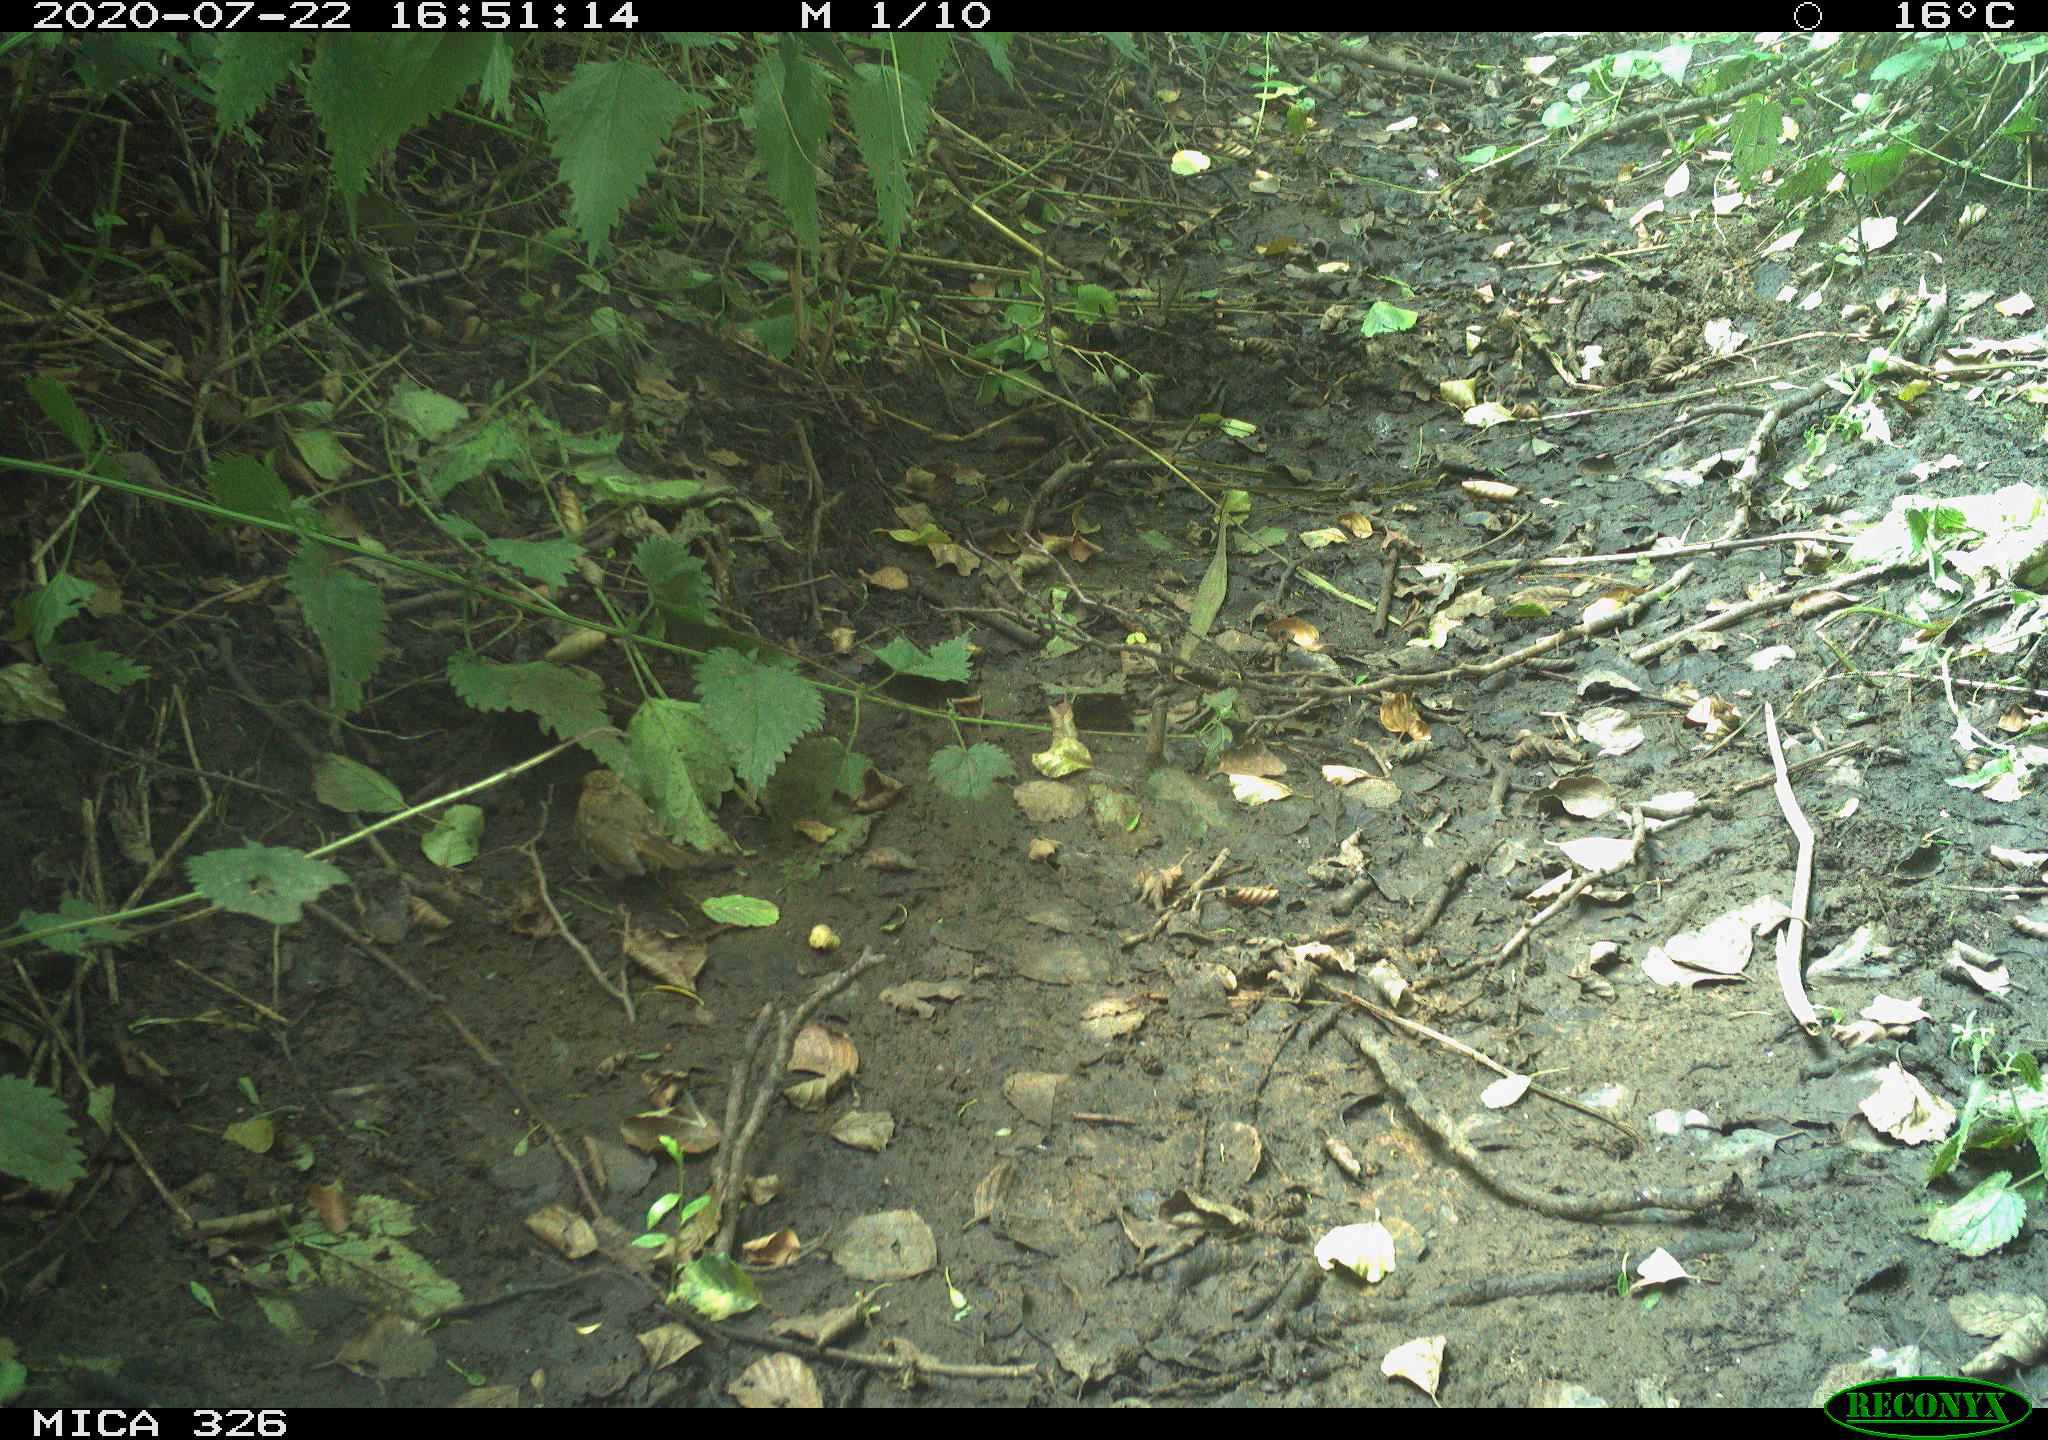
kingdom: Animalia
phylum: Chordata
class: Aves
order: Passeriformes
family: Muscicapidae
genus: Erithacus
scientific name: Erithacus rubecula
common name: European robin
